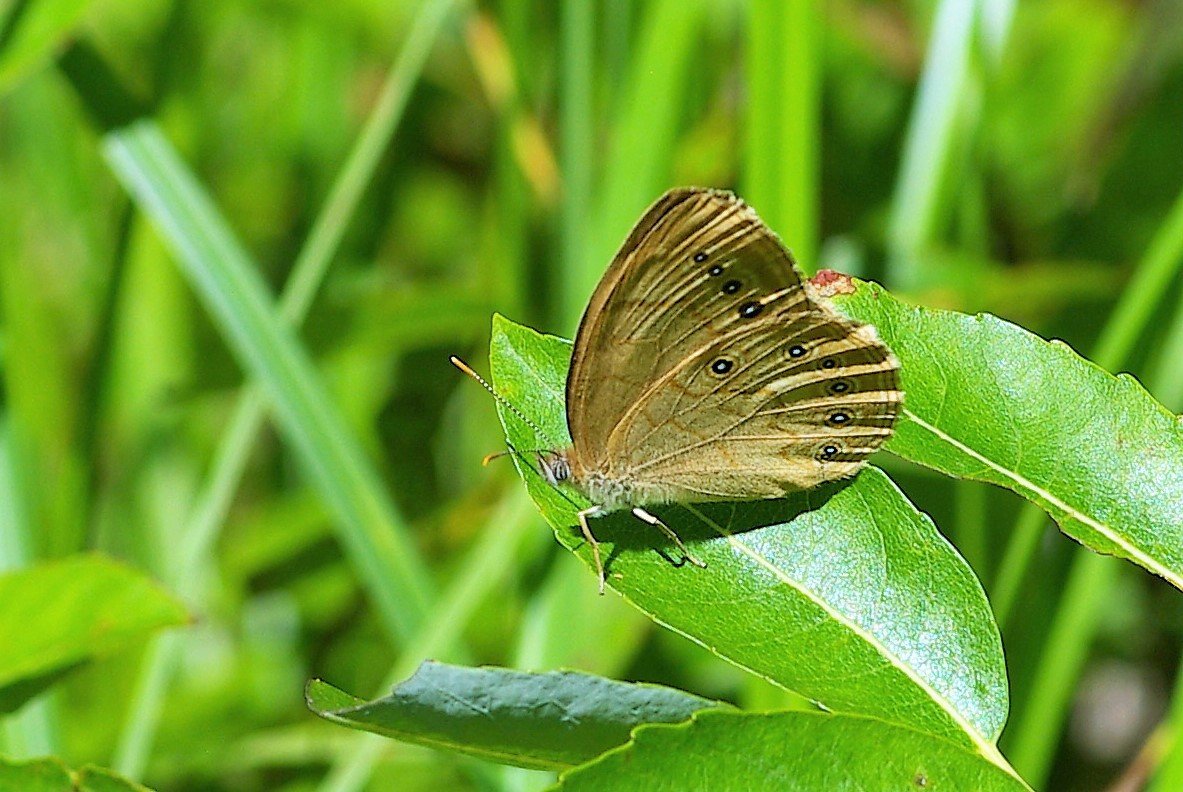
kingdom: Animalia
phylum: Arthropoda
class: Insecta
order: Lepidoptera
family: Nymphalidae
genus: Lethe
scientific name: Lethe eurydice
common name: Eyed Brown
